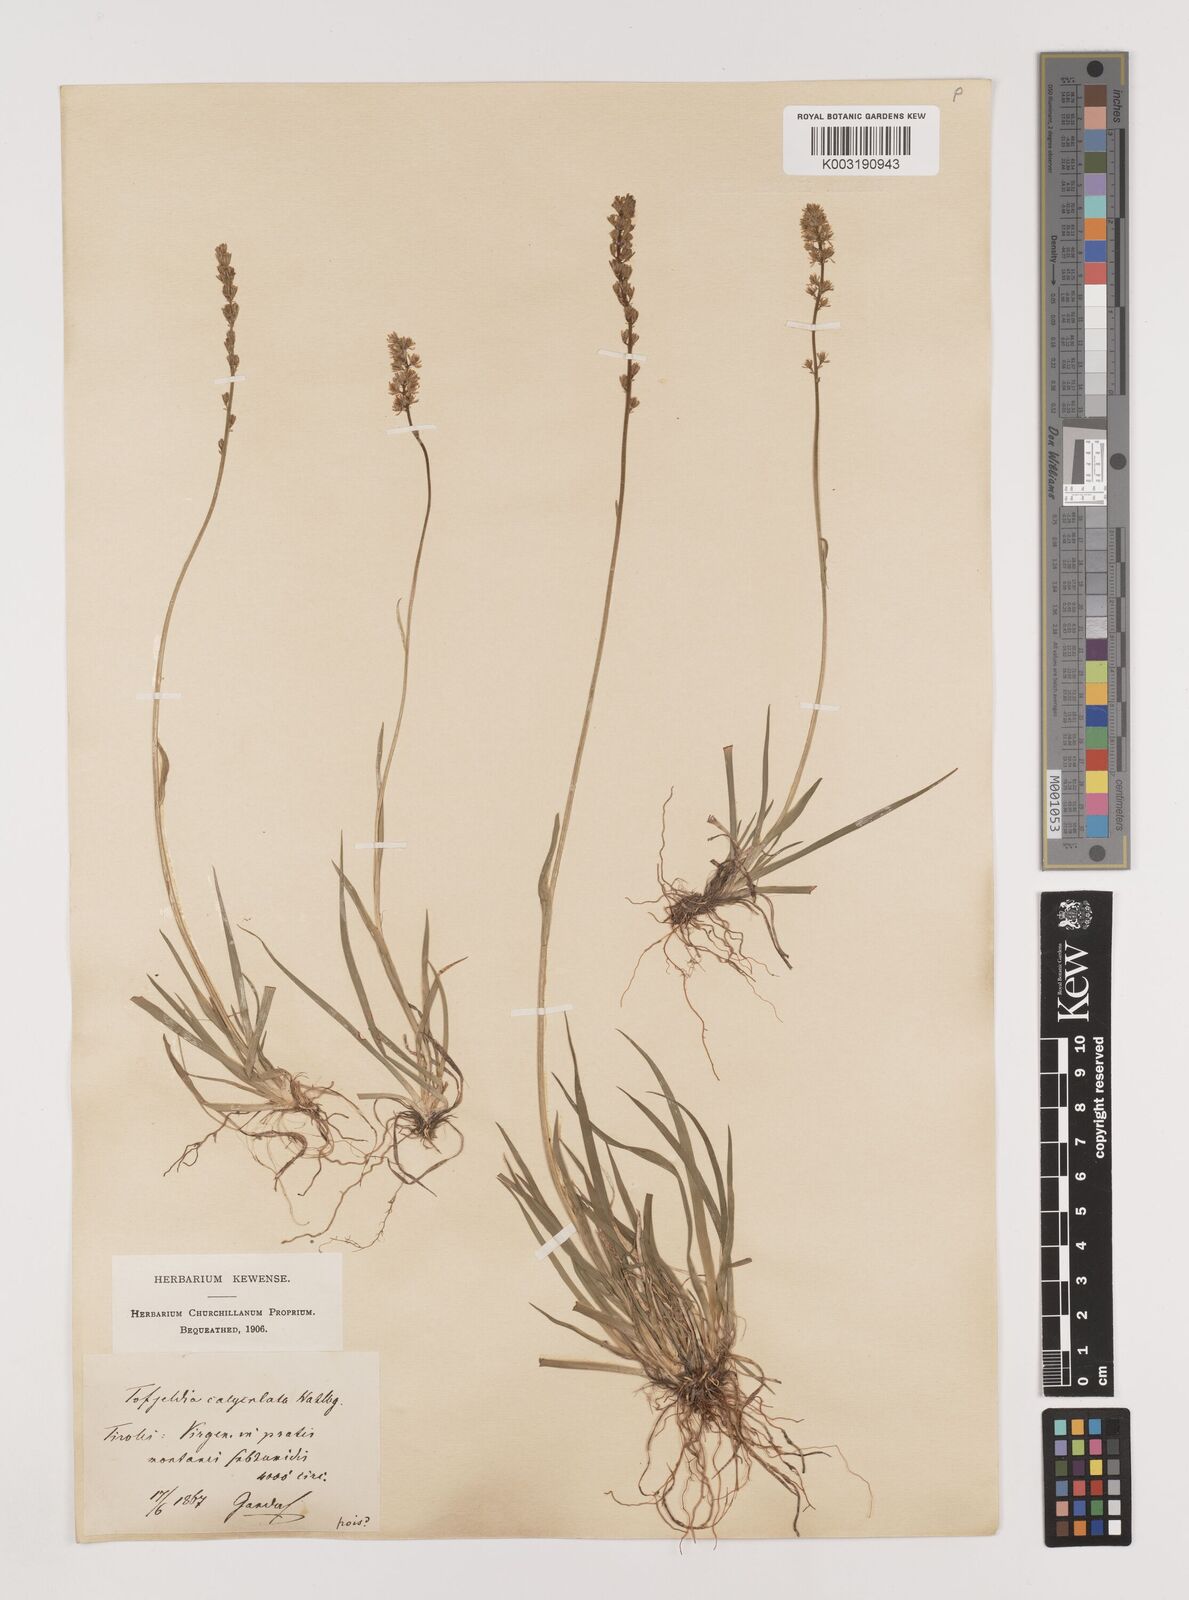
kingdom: Plantae
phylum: Tracheophyta
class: Liliopsida
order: Alismatales
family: Tofieldiaceae
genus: Tofieldia
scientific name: Tofieldia calyculata
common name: German-asphodel
